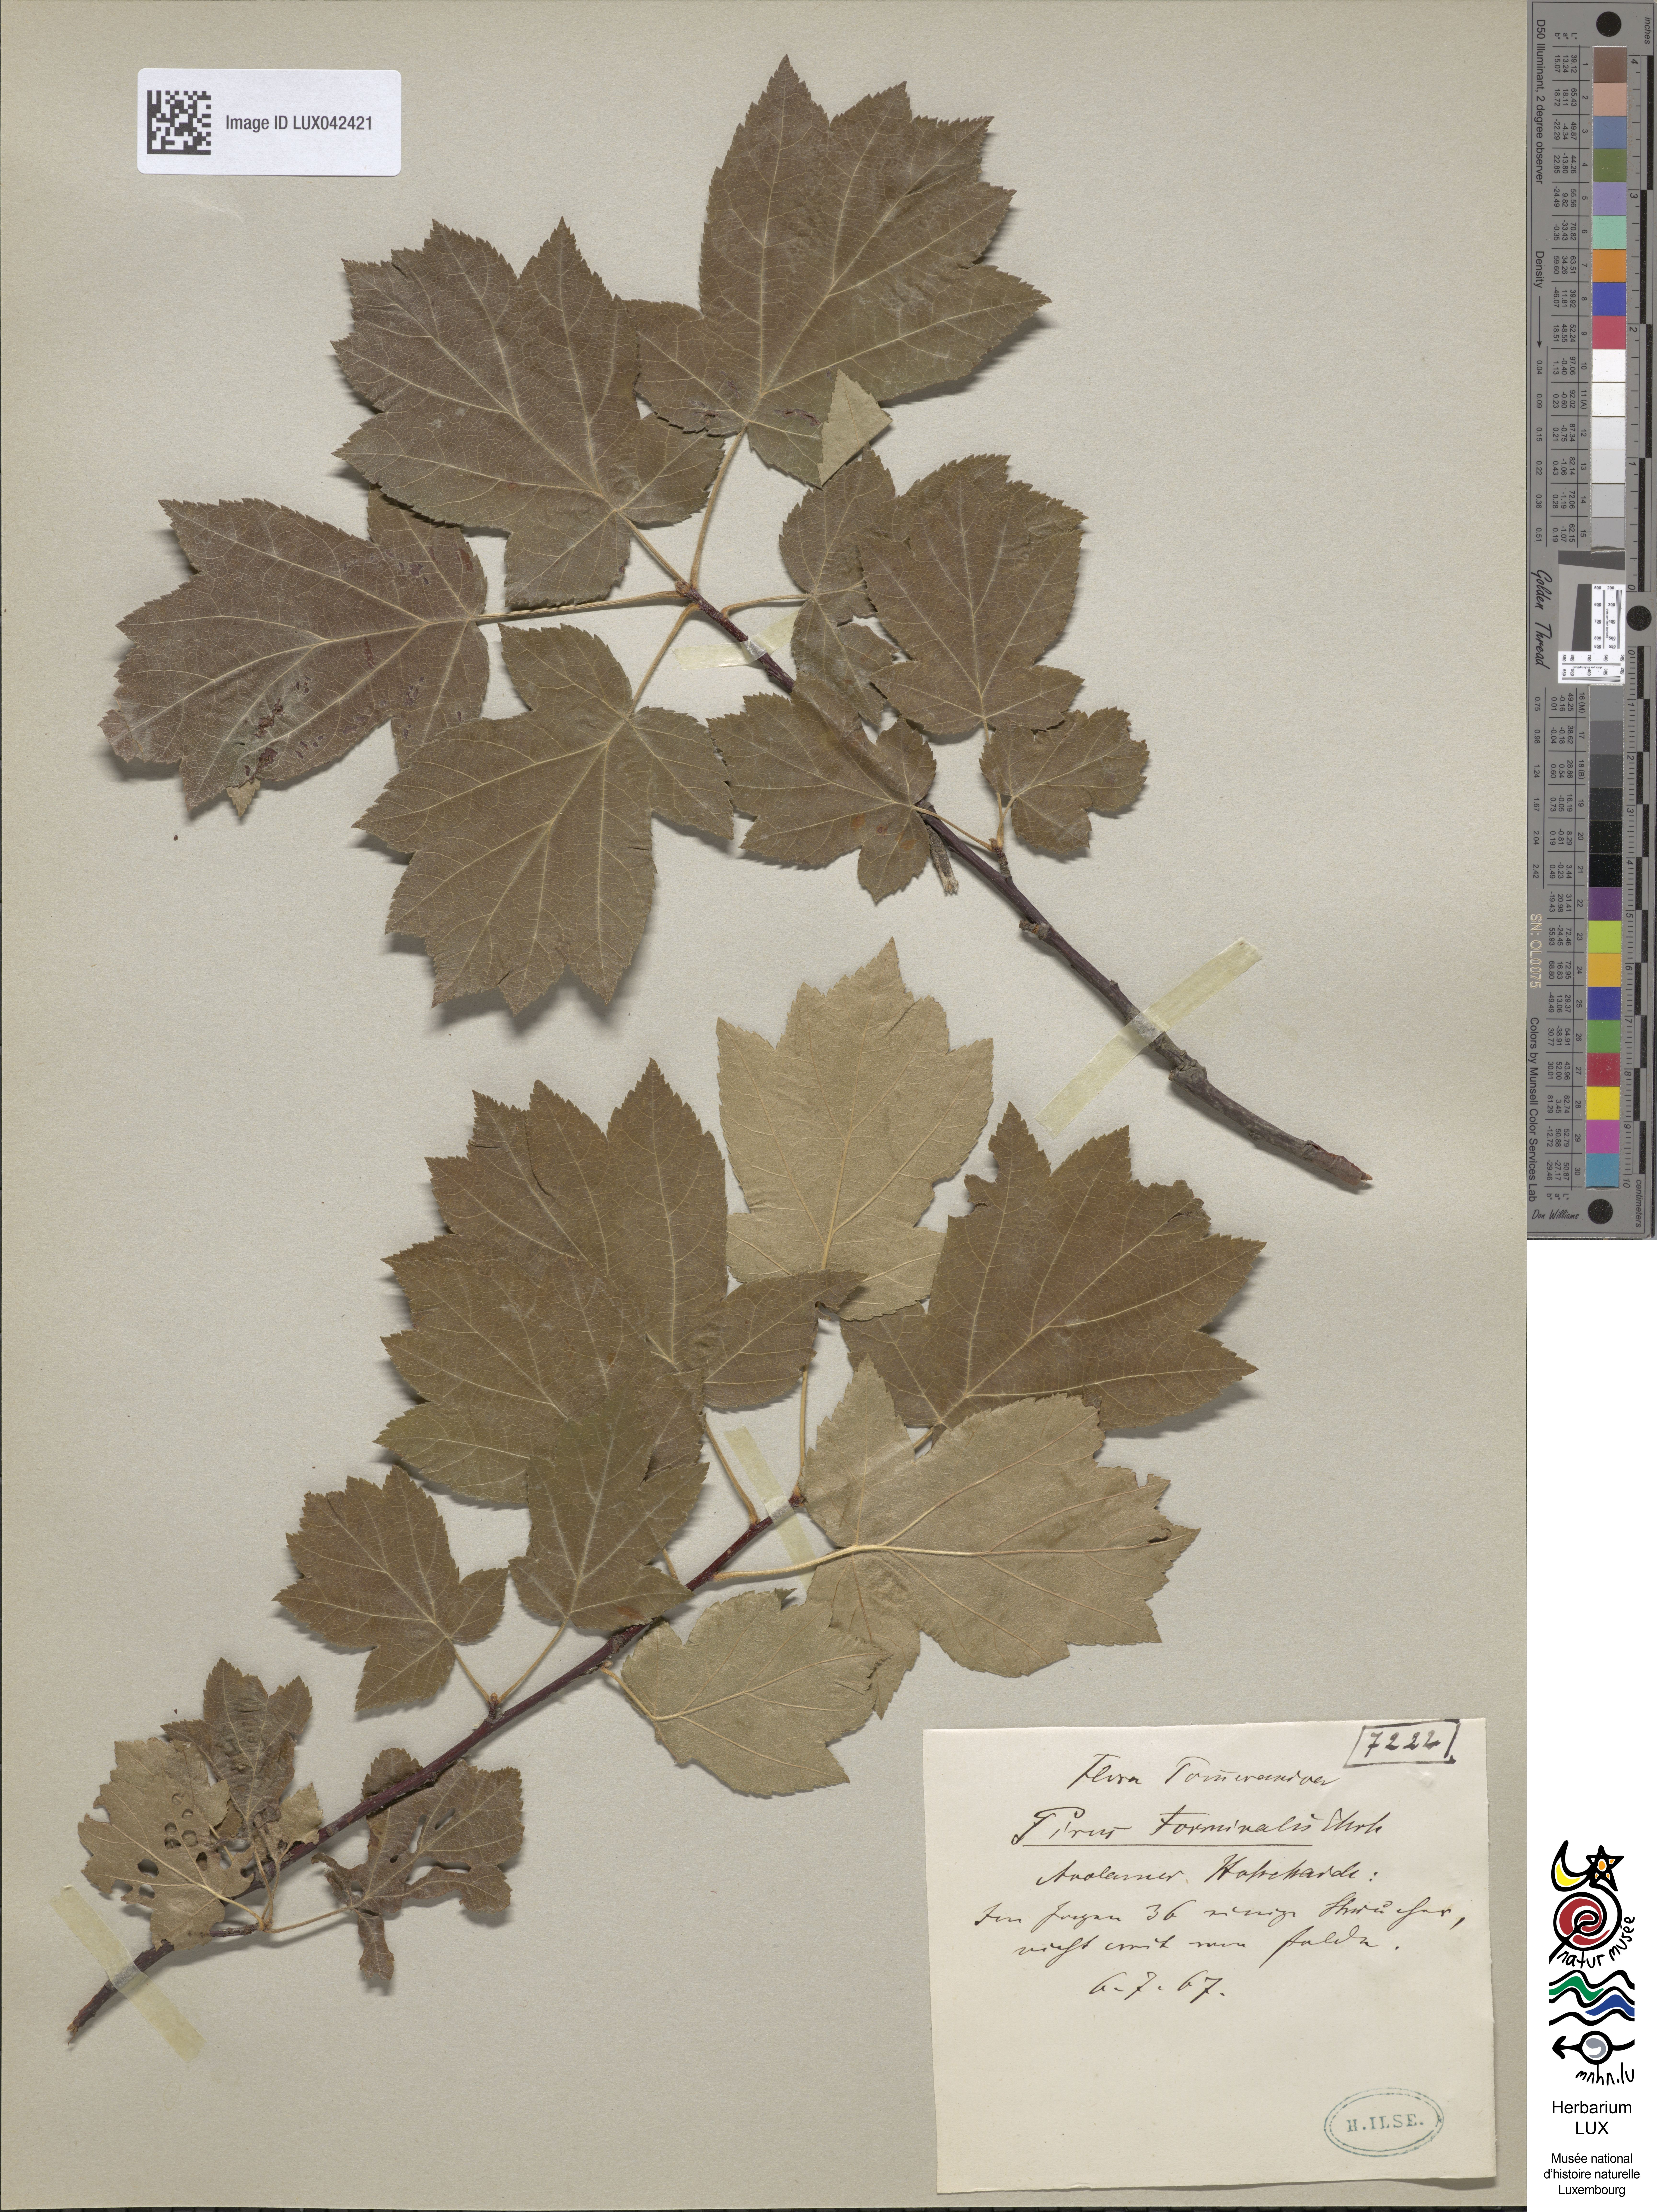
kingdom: Plantae
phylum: Tracheophyta
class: Magnoliopsida
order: Rosales
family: Rosaceae
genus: Torminalis
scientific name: Torminalis glaberrima
